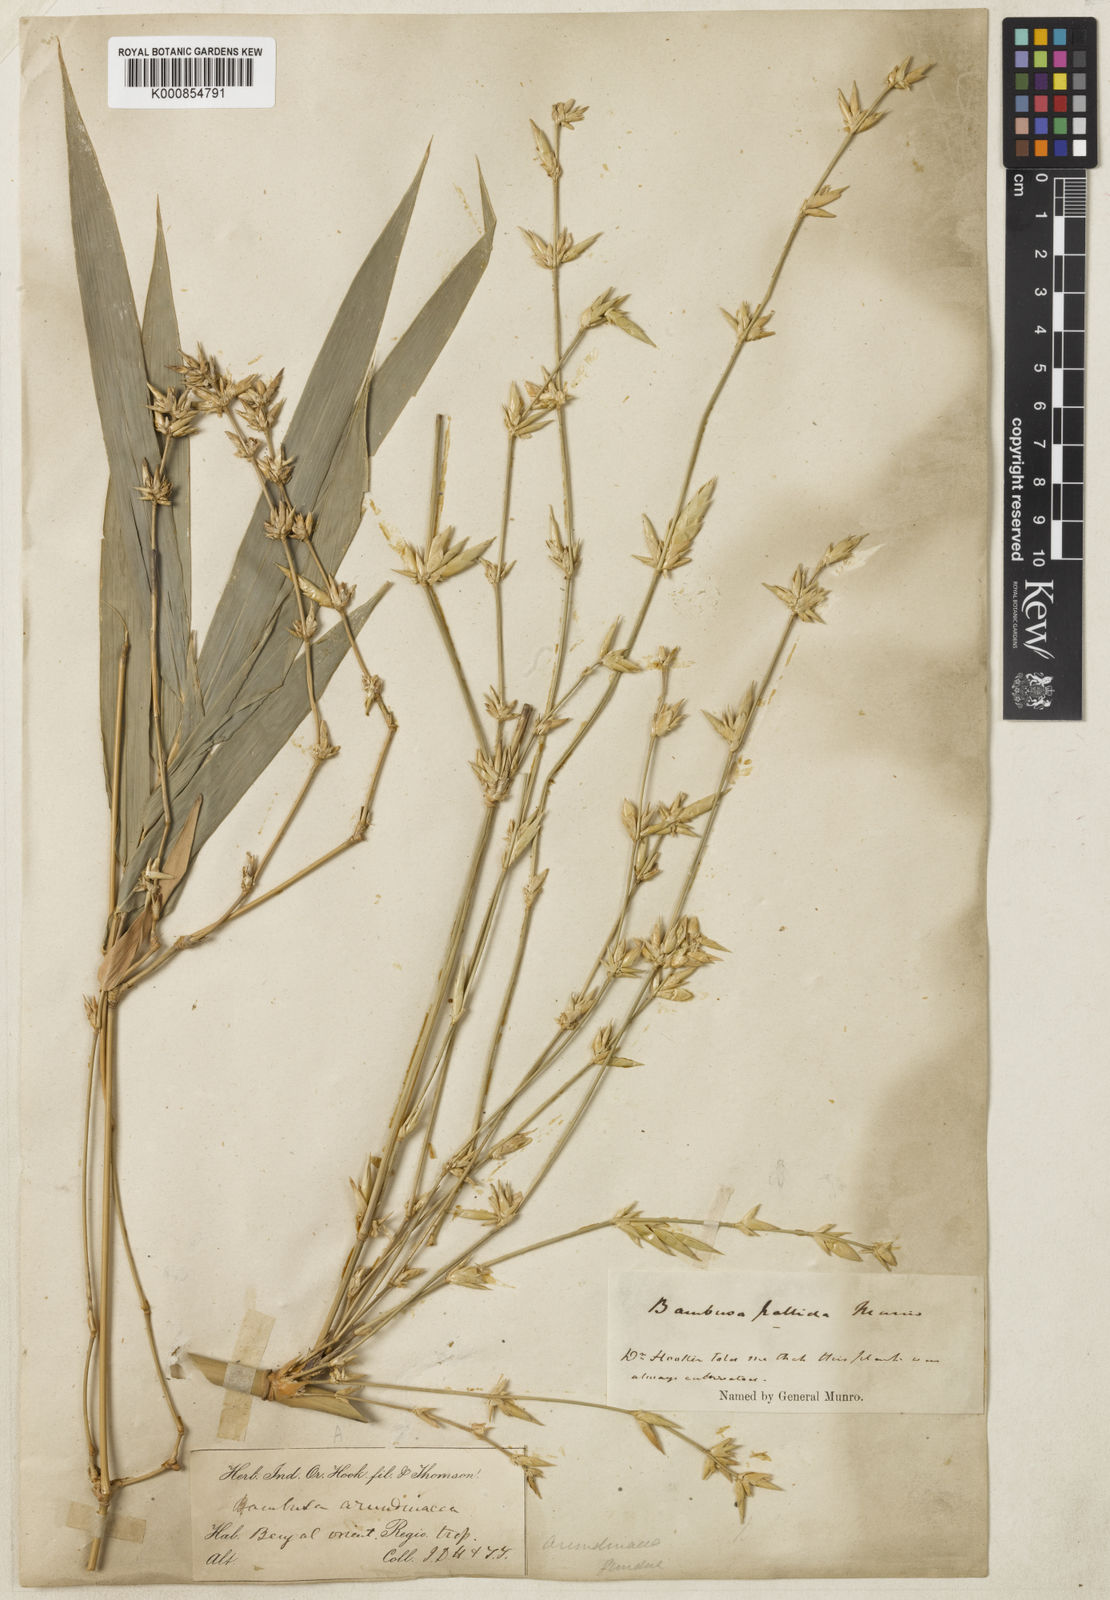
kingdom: Plantae
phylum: Tracheophyta
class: Liliopsida
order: Poales
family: Poaceae
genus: Bambusa
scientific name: Bambusa pallida
